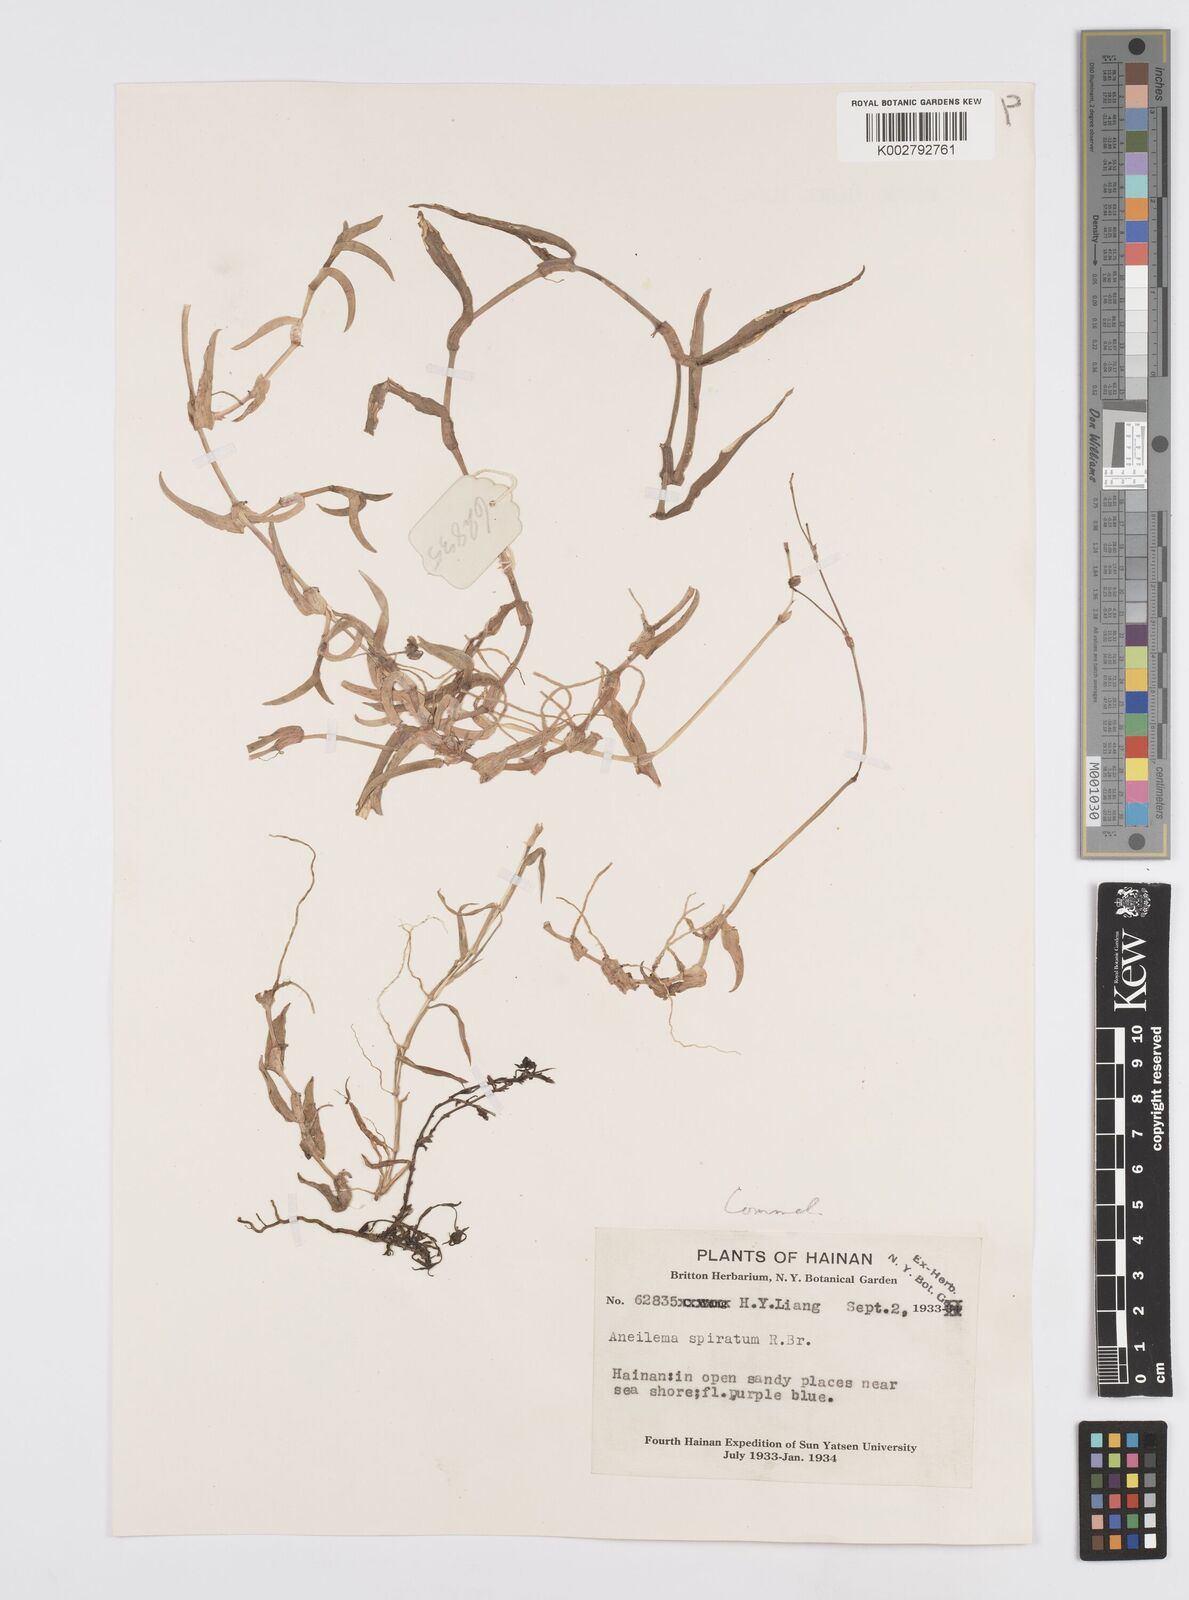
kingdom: Plantae
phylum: Tracheophyta
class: Liliopsida
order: Commelinales
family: Commelinaceae
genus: Murdannia
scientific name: Murdannia
